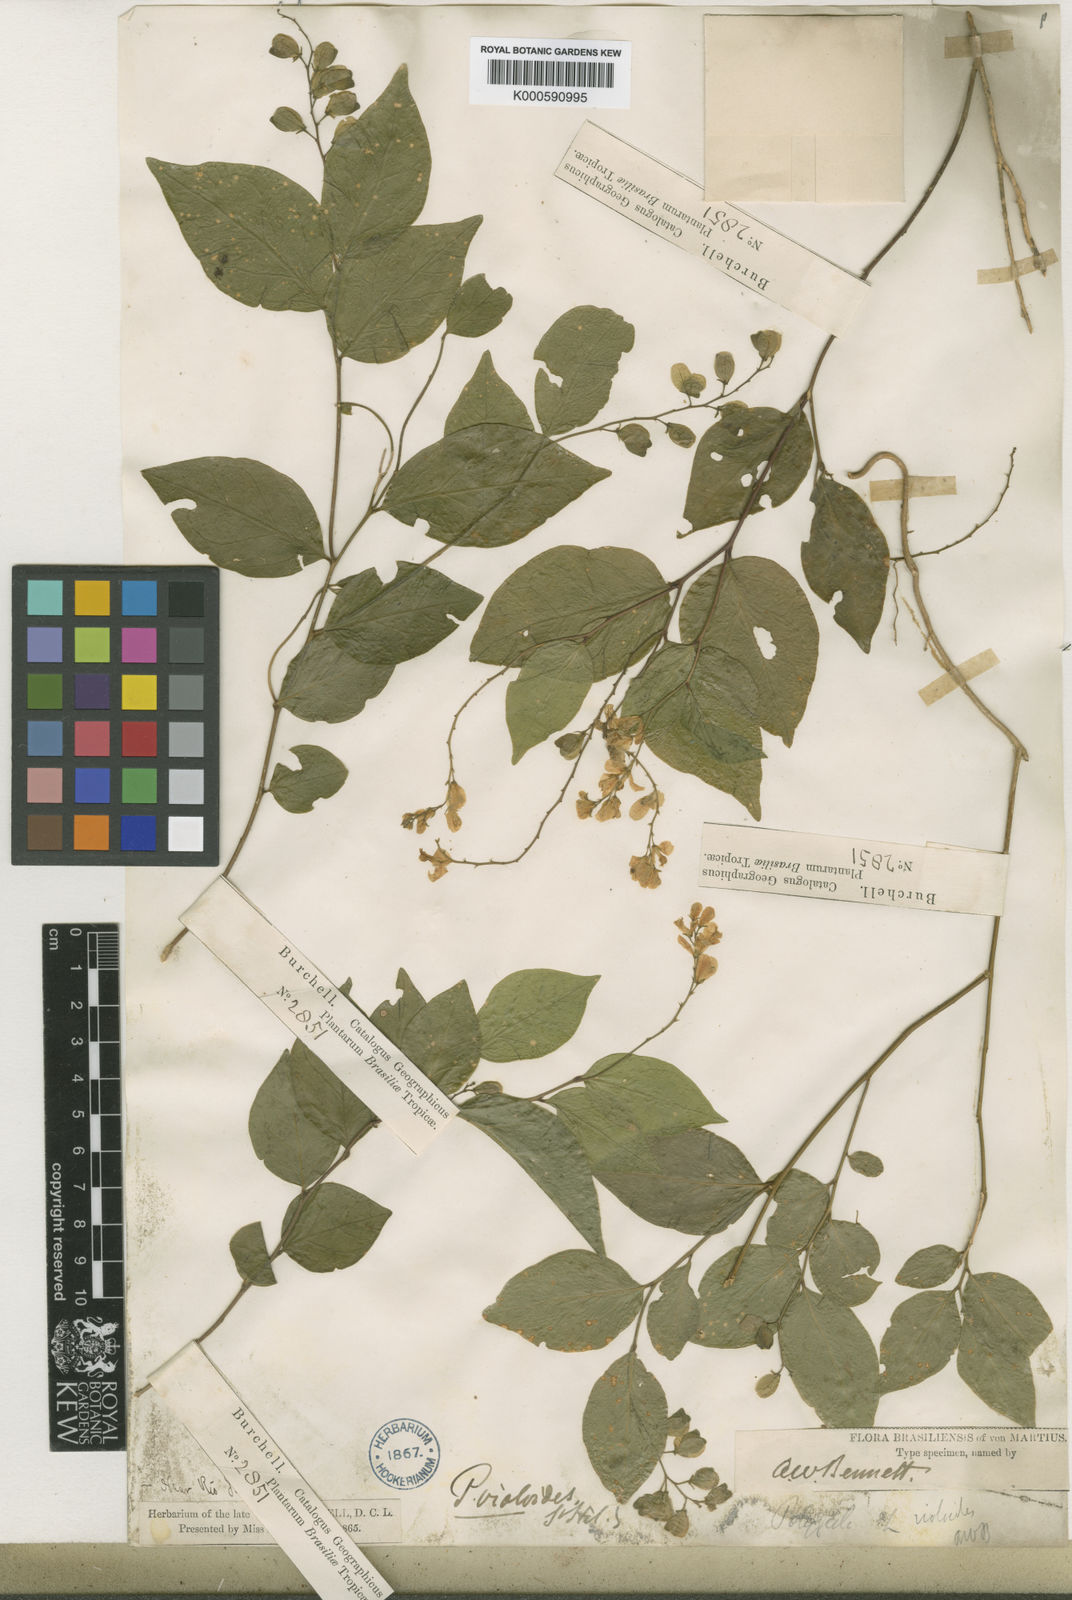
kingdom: Plantae
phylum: Tracheophyta
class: Magnoliopsida
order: Fabales
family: Polygalaceae
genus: Gymnospora
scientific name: Gymnospora violoides
